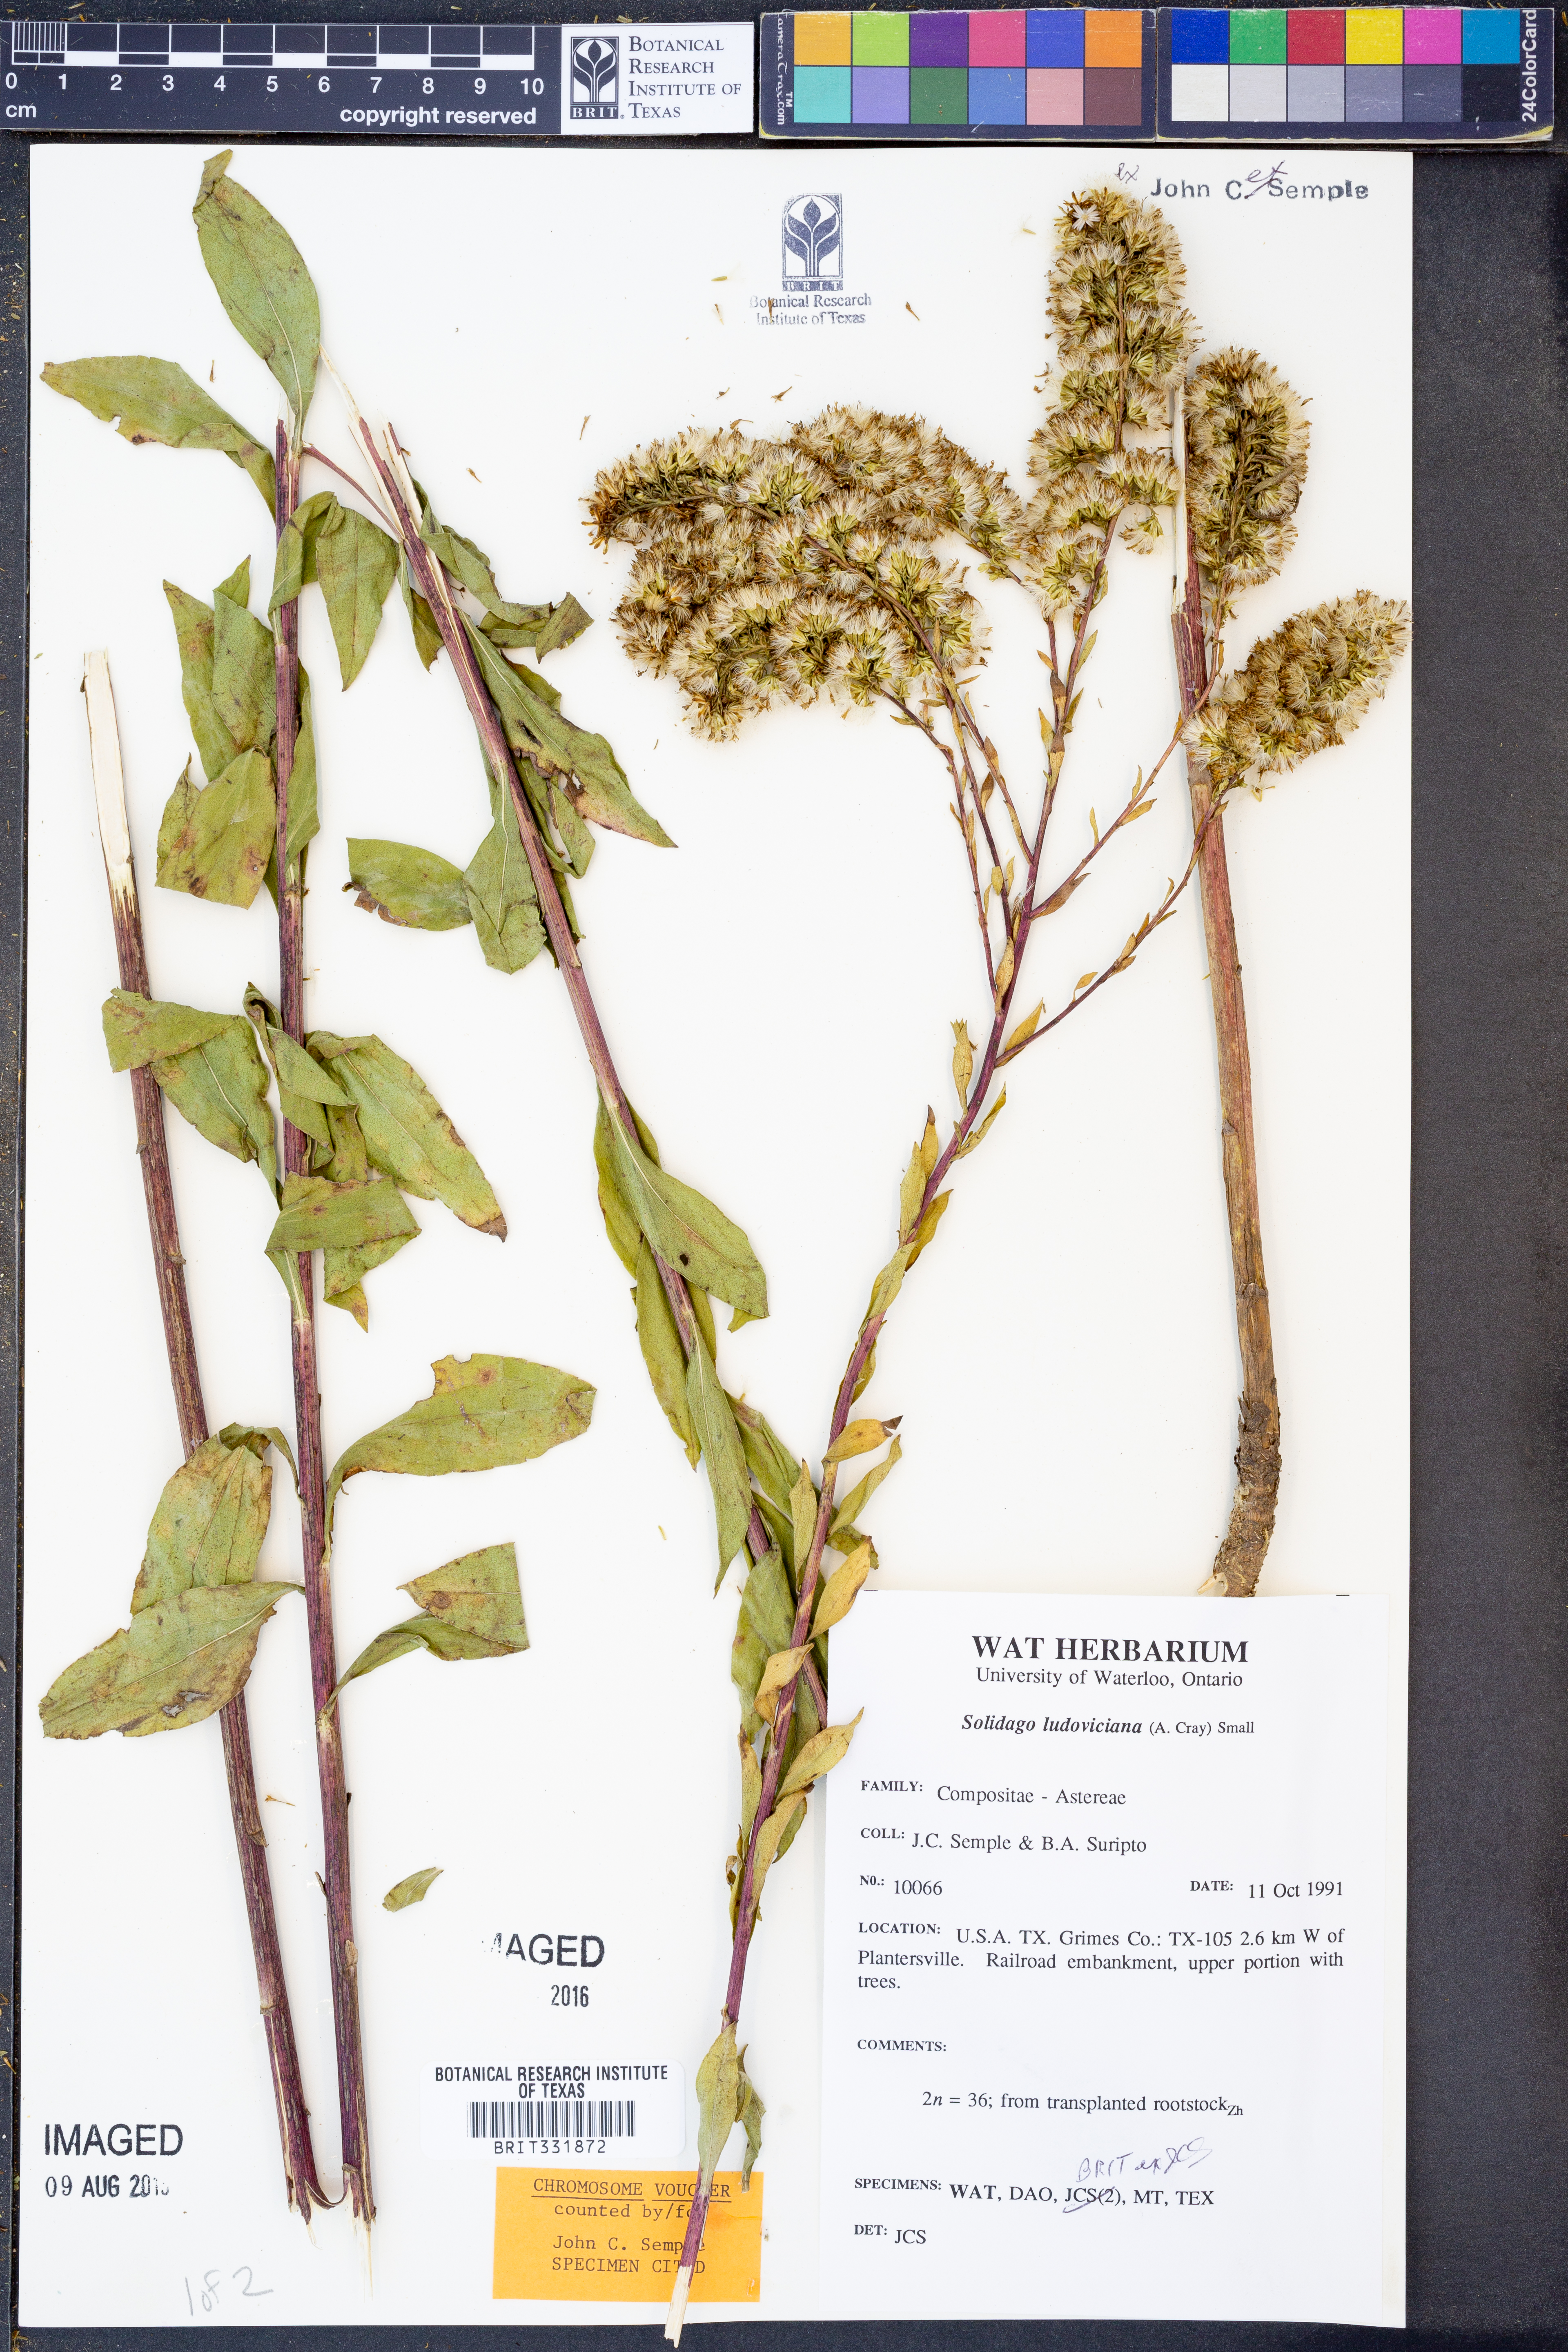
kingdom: Plantae
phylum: Tracheophyta
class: Magnoliopsida
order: Asterales
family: Asteraceae
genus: Solidago
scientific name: Solidago ludoviciana
